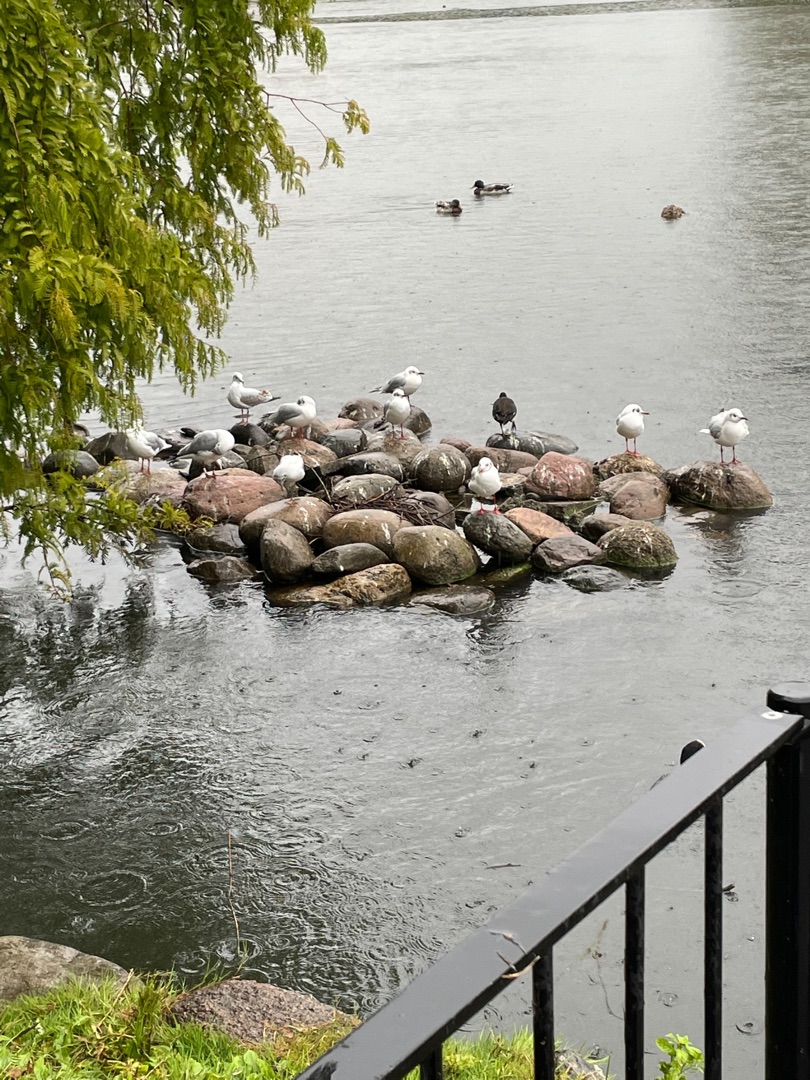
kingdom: Animalia
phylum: Chordata
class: Aves
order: Charadriiformes
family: Laridae
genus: Chroicocephalus
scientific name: Chroicocephalus ridibundus
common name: Hættemåge
